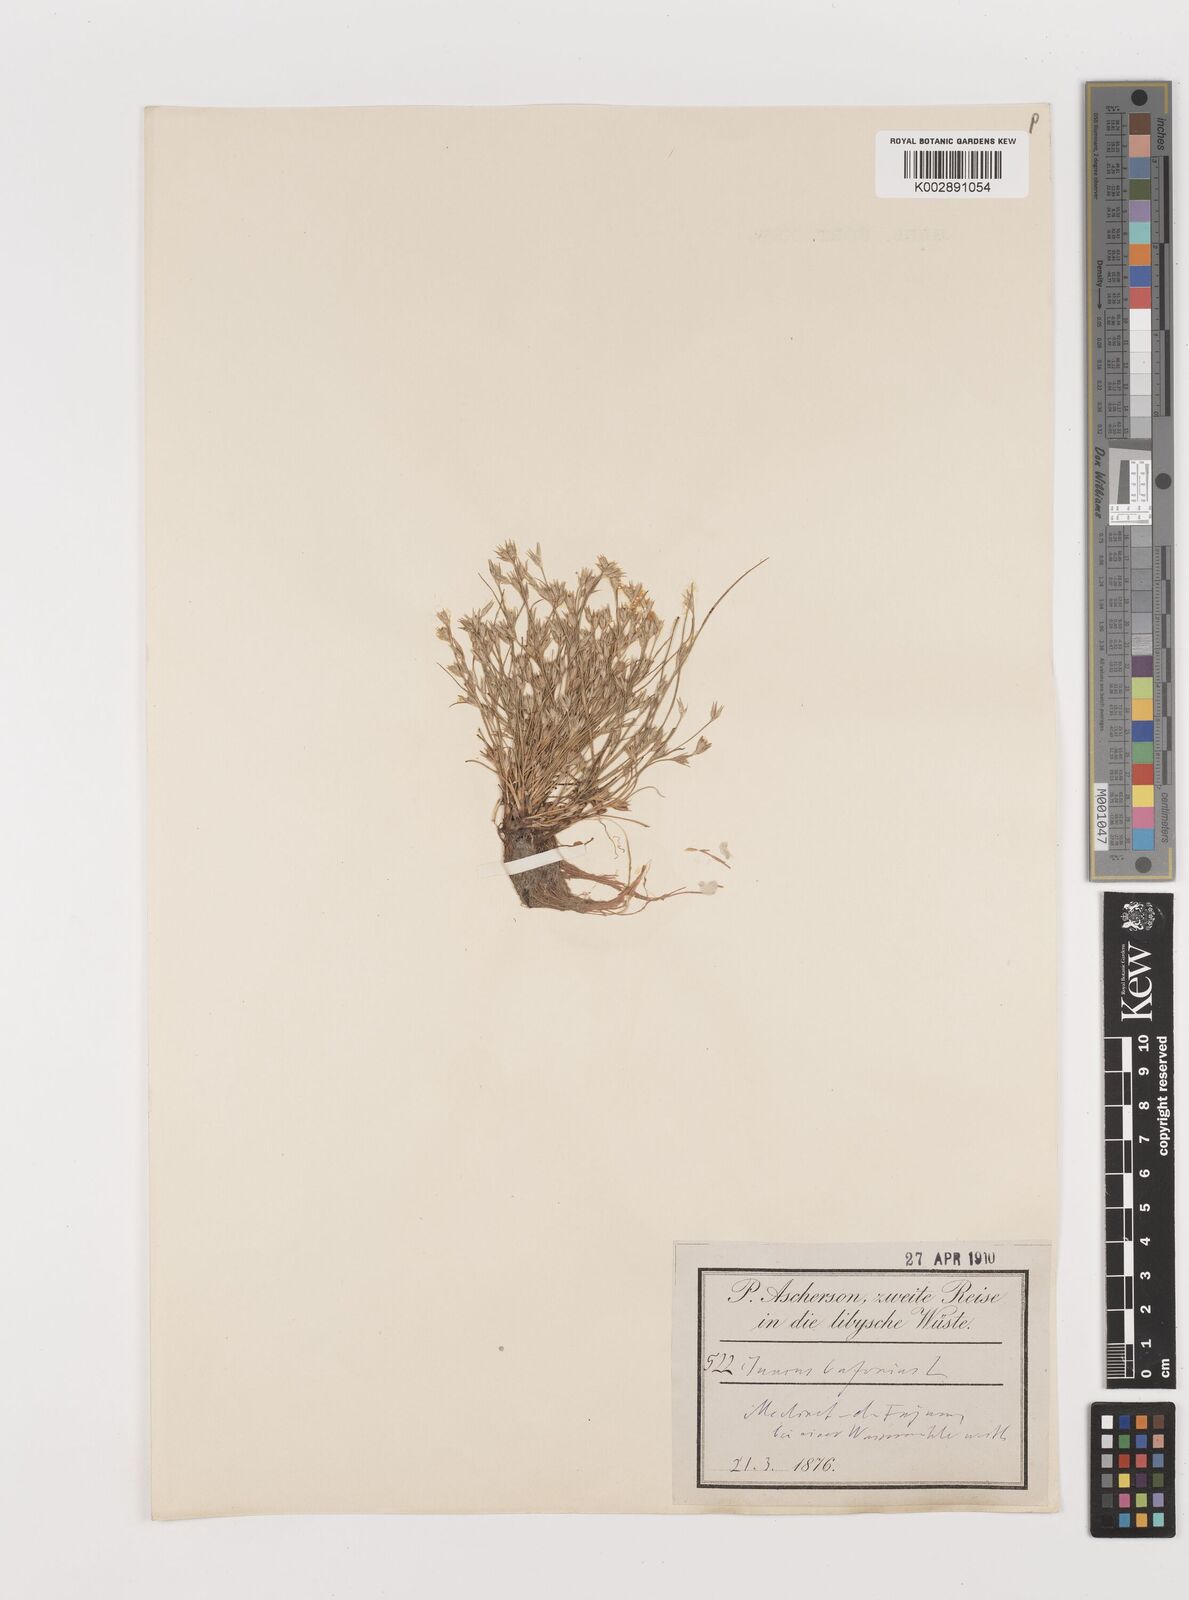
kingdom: Plantae
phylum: Tracheophyta
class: Liliopsida
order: Poales
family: Juncaceae
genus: Juncus
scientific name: Juncus bufonius
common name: Toad rush
